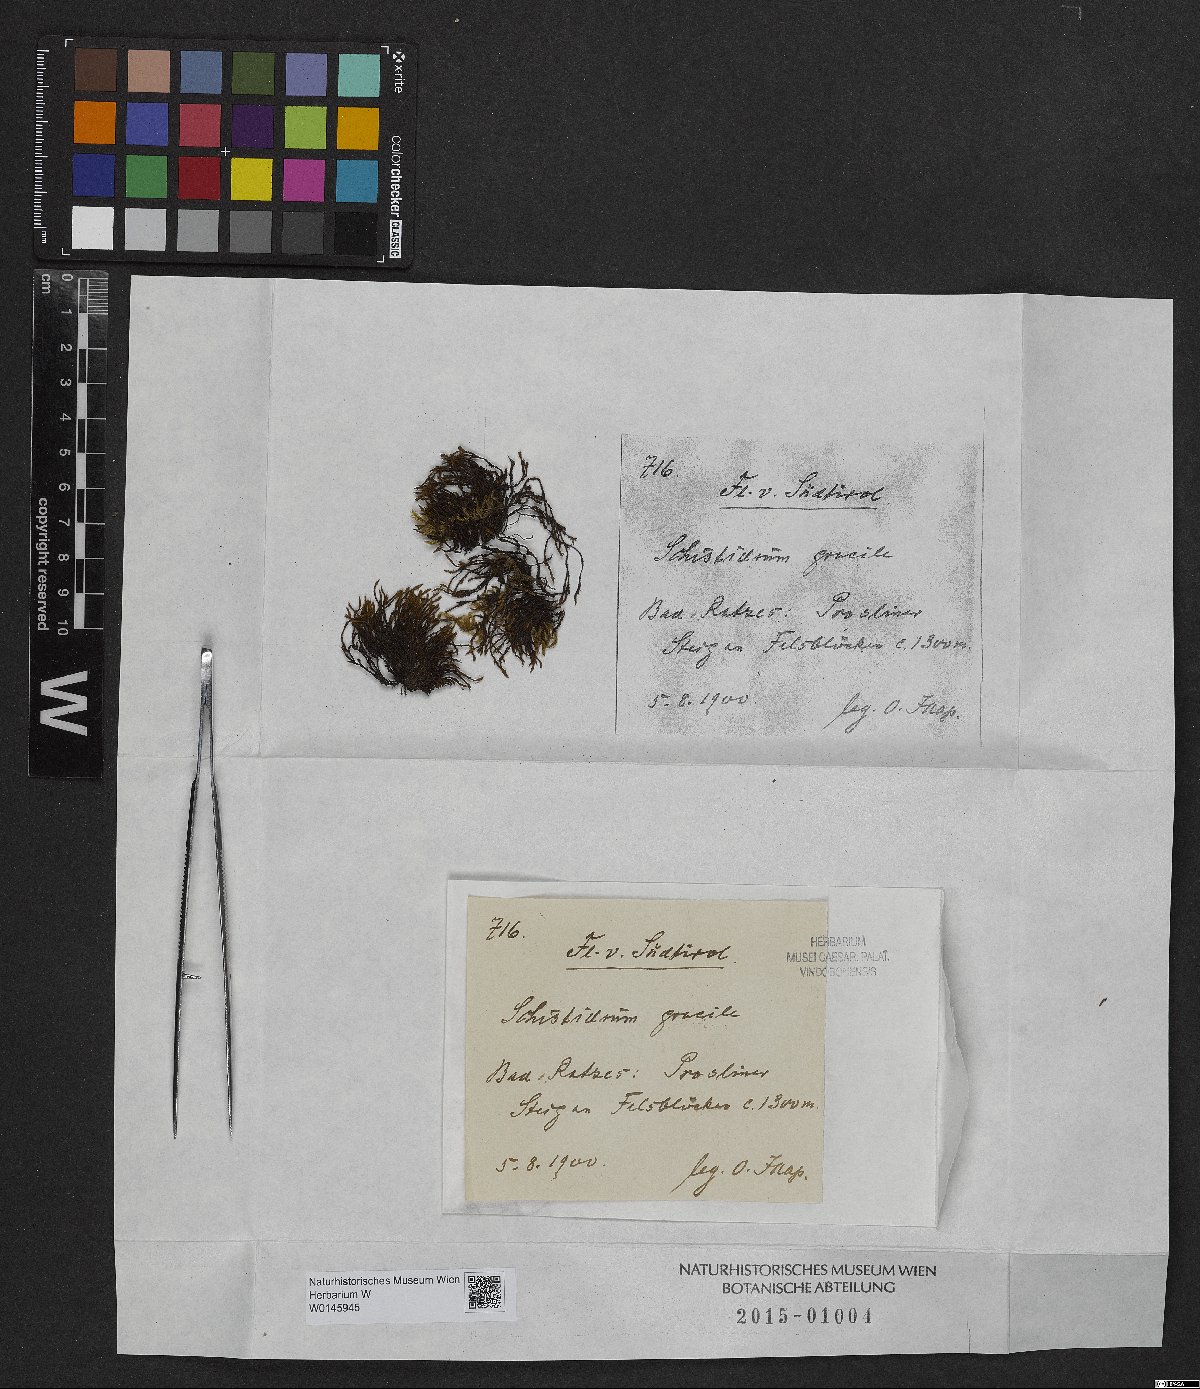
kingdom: Plantae
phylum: Bryophyta
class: Bryopsida
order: Grimmiales
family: Grimmiaceae
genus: Schistidium
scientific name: Schistidium trichodon
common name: Black bloom moss
